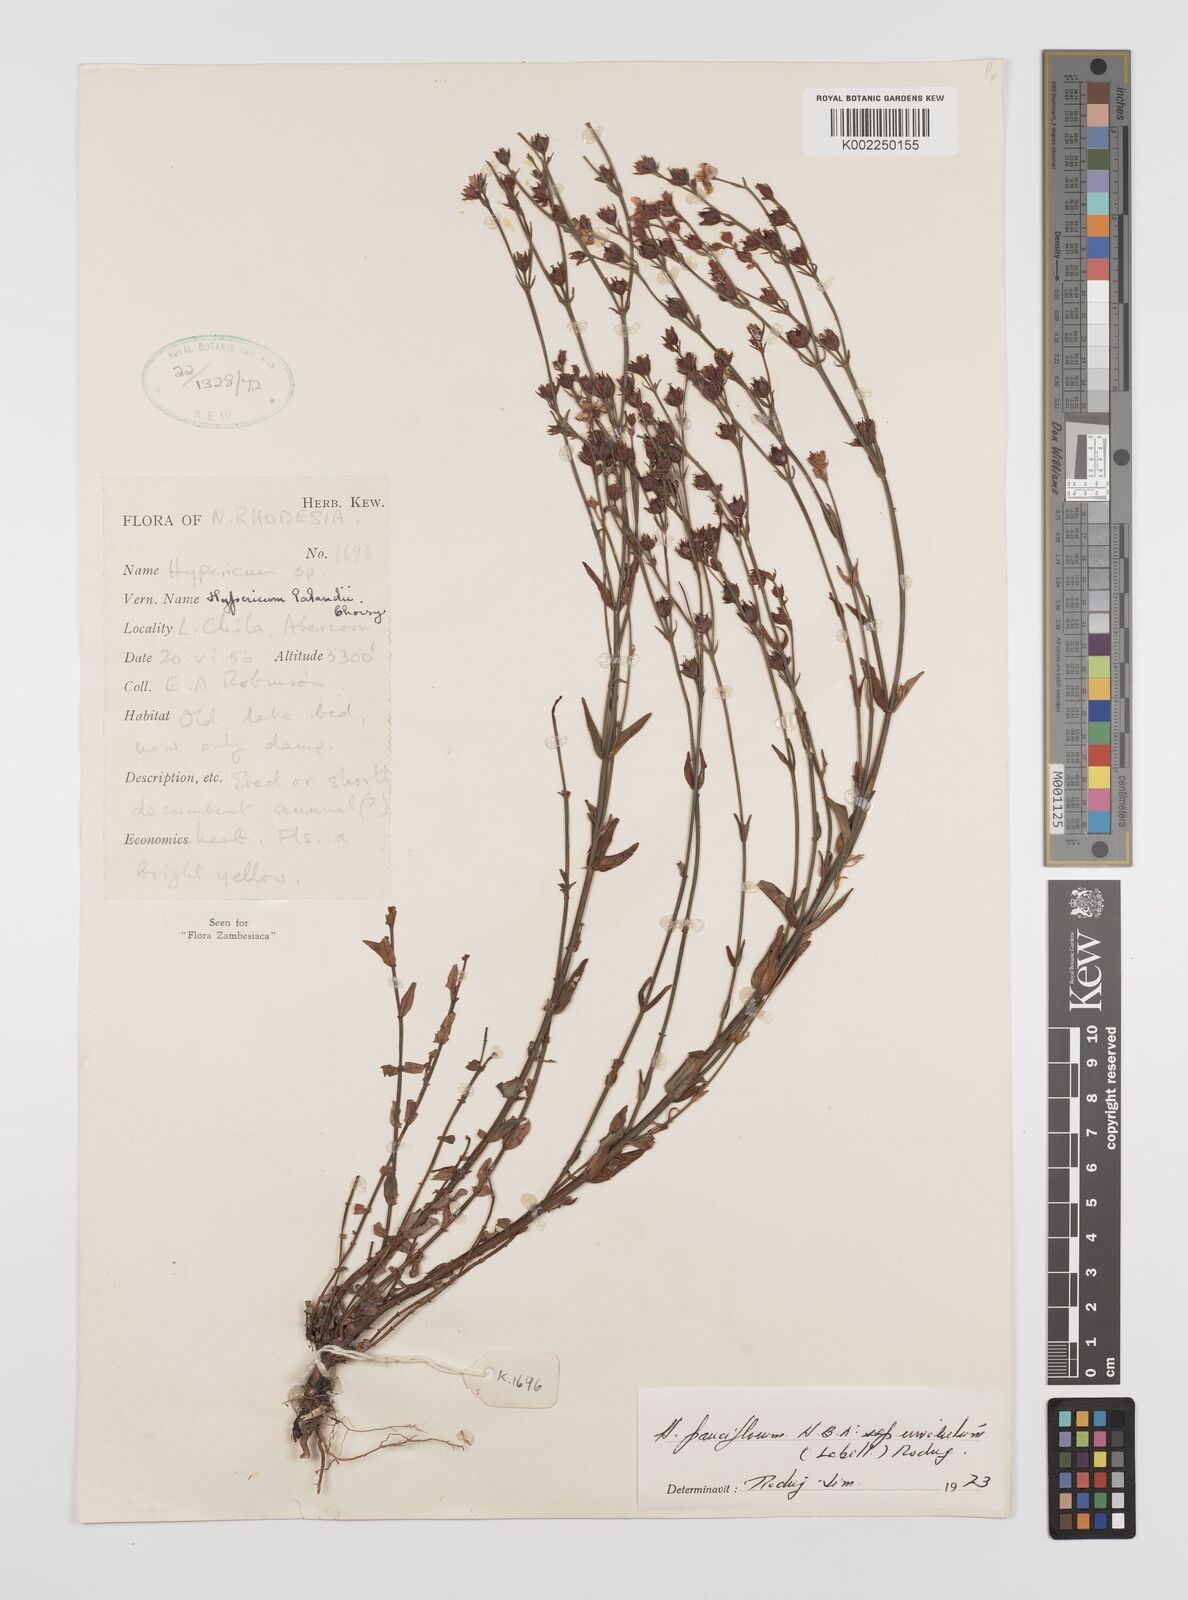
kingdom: Plantae
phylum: Tracheophyta
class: Magnoliopsida
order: Malpighiales
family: Hypericaceae
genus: Hypericum
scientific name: Hypericum lalandii
